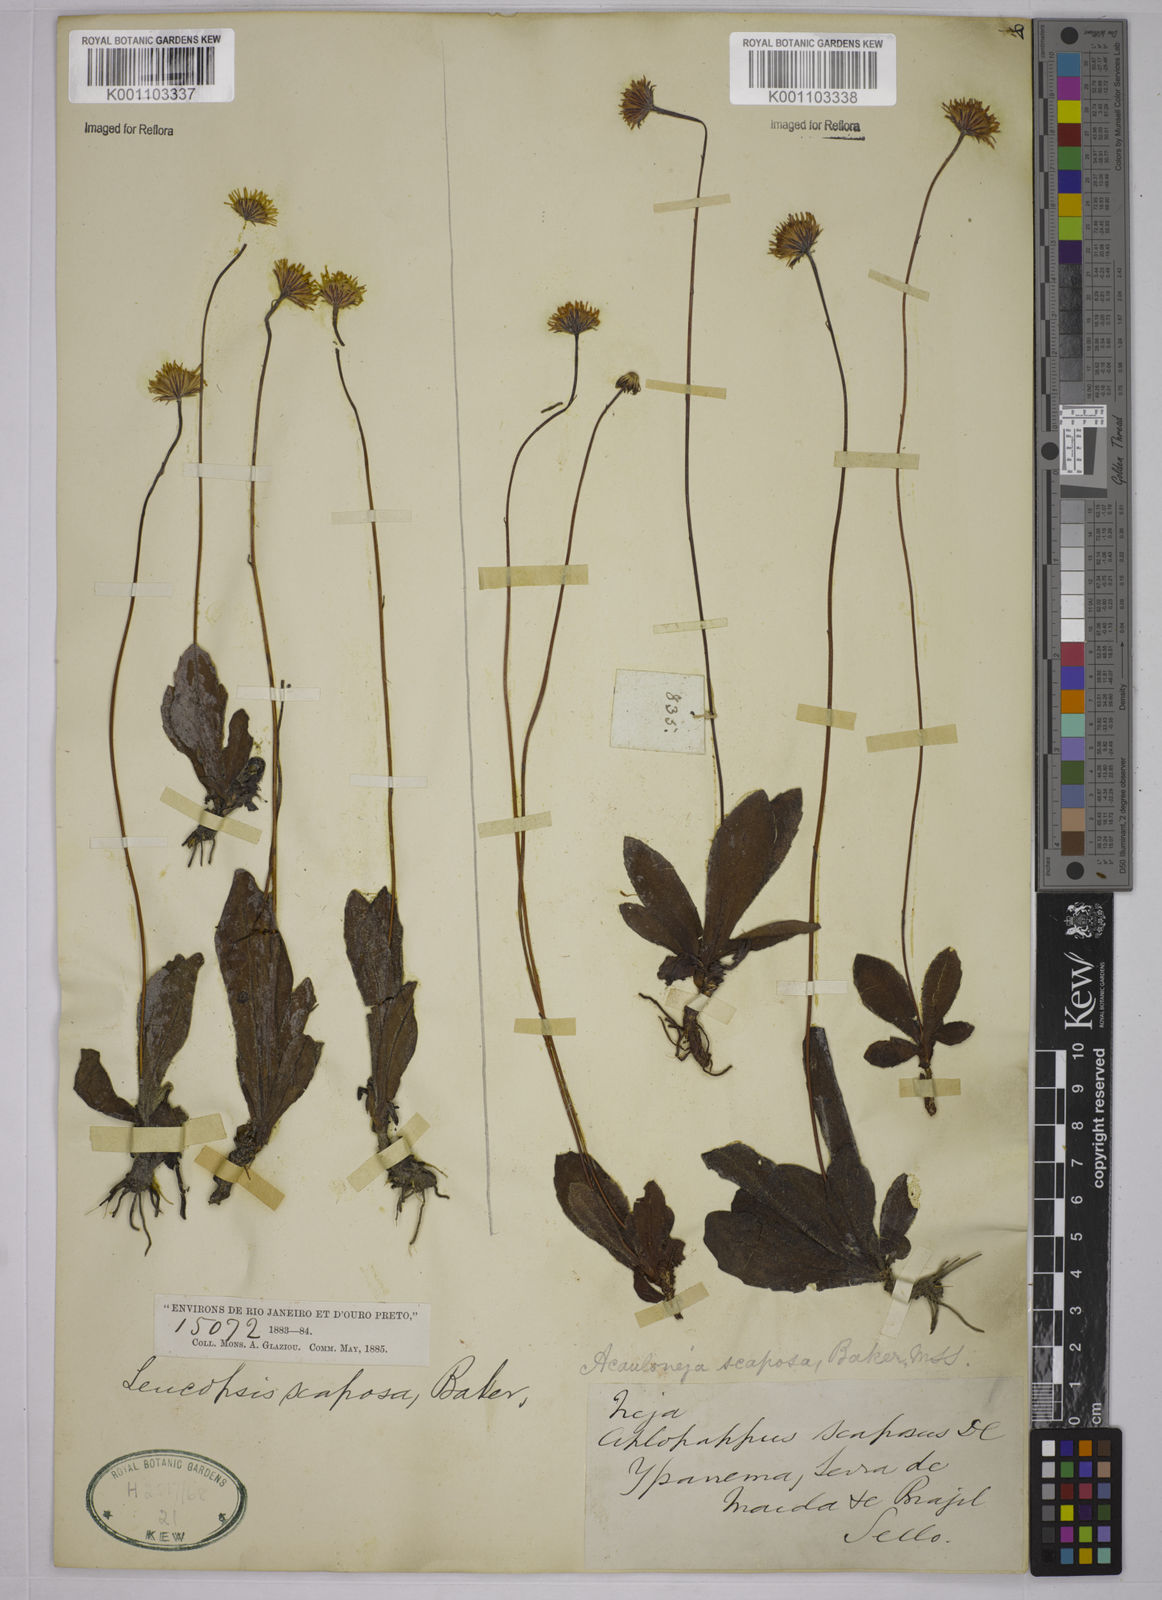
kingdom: Plantae
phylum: Tracheophyta
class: Magnoliopsida
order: Asterales
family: Asteraceae
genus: Inulopsis
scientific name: Inulopsis scaposa
